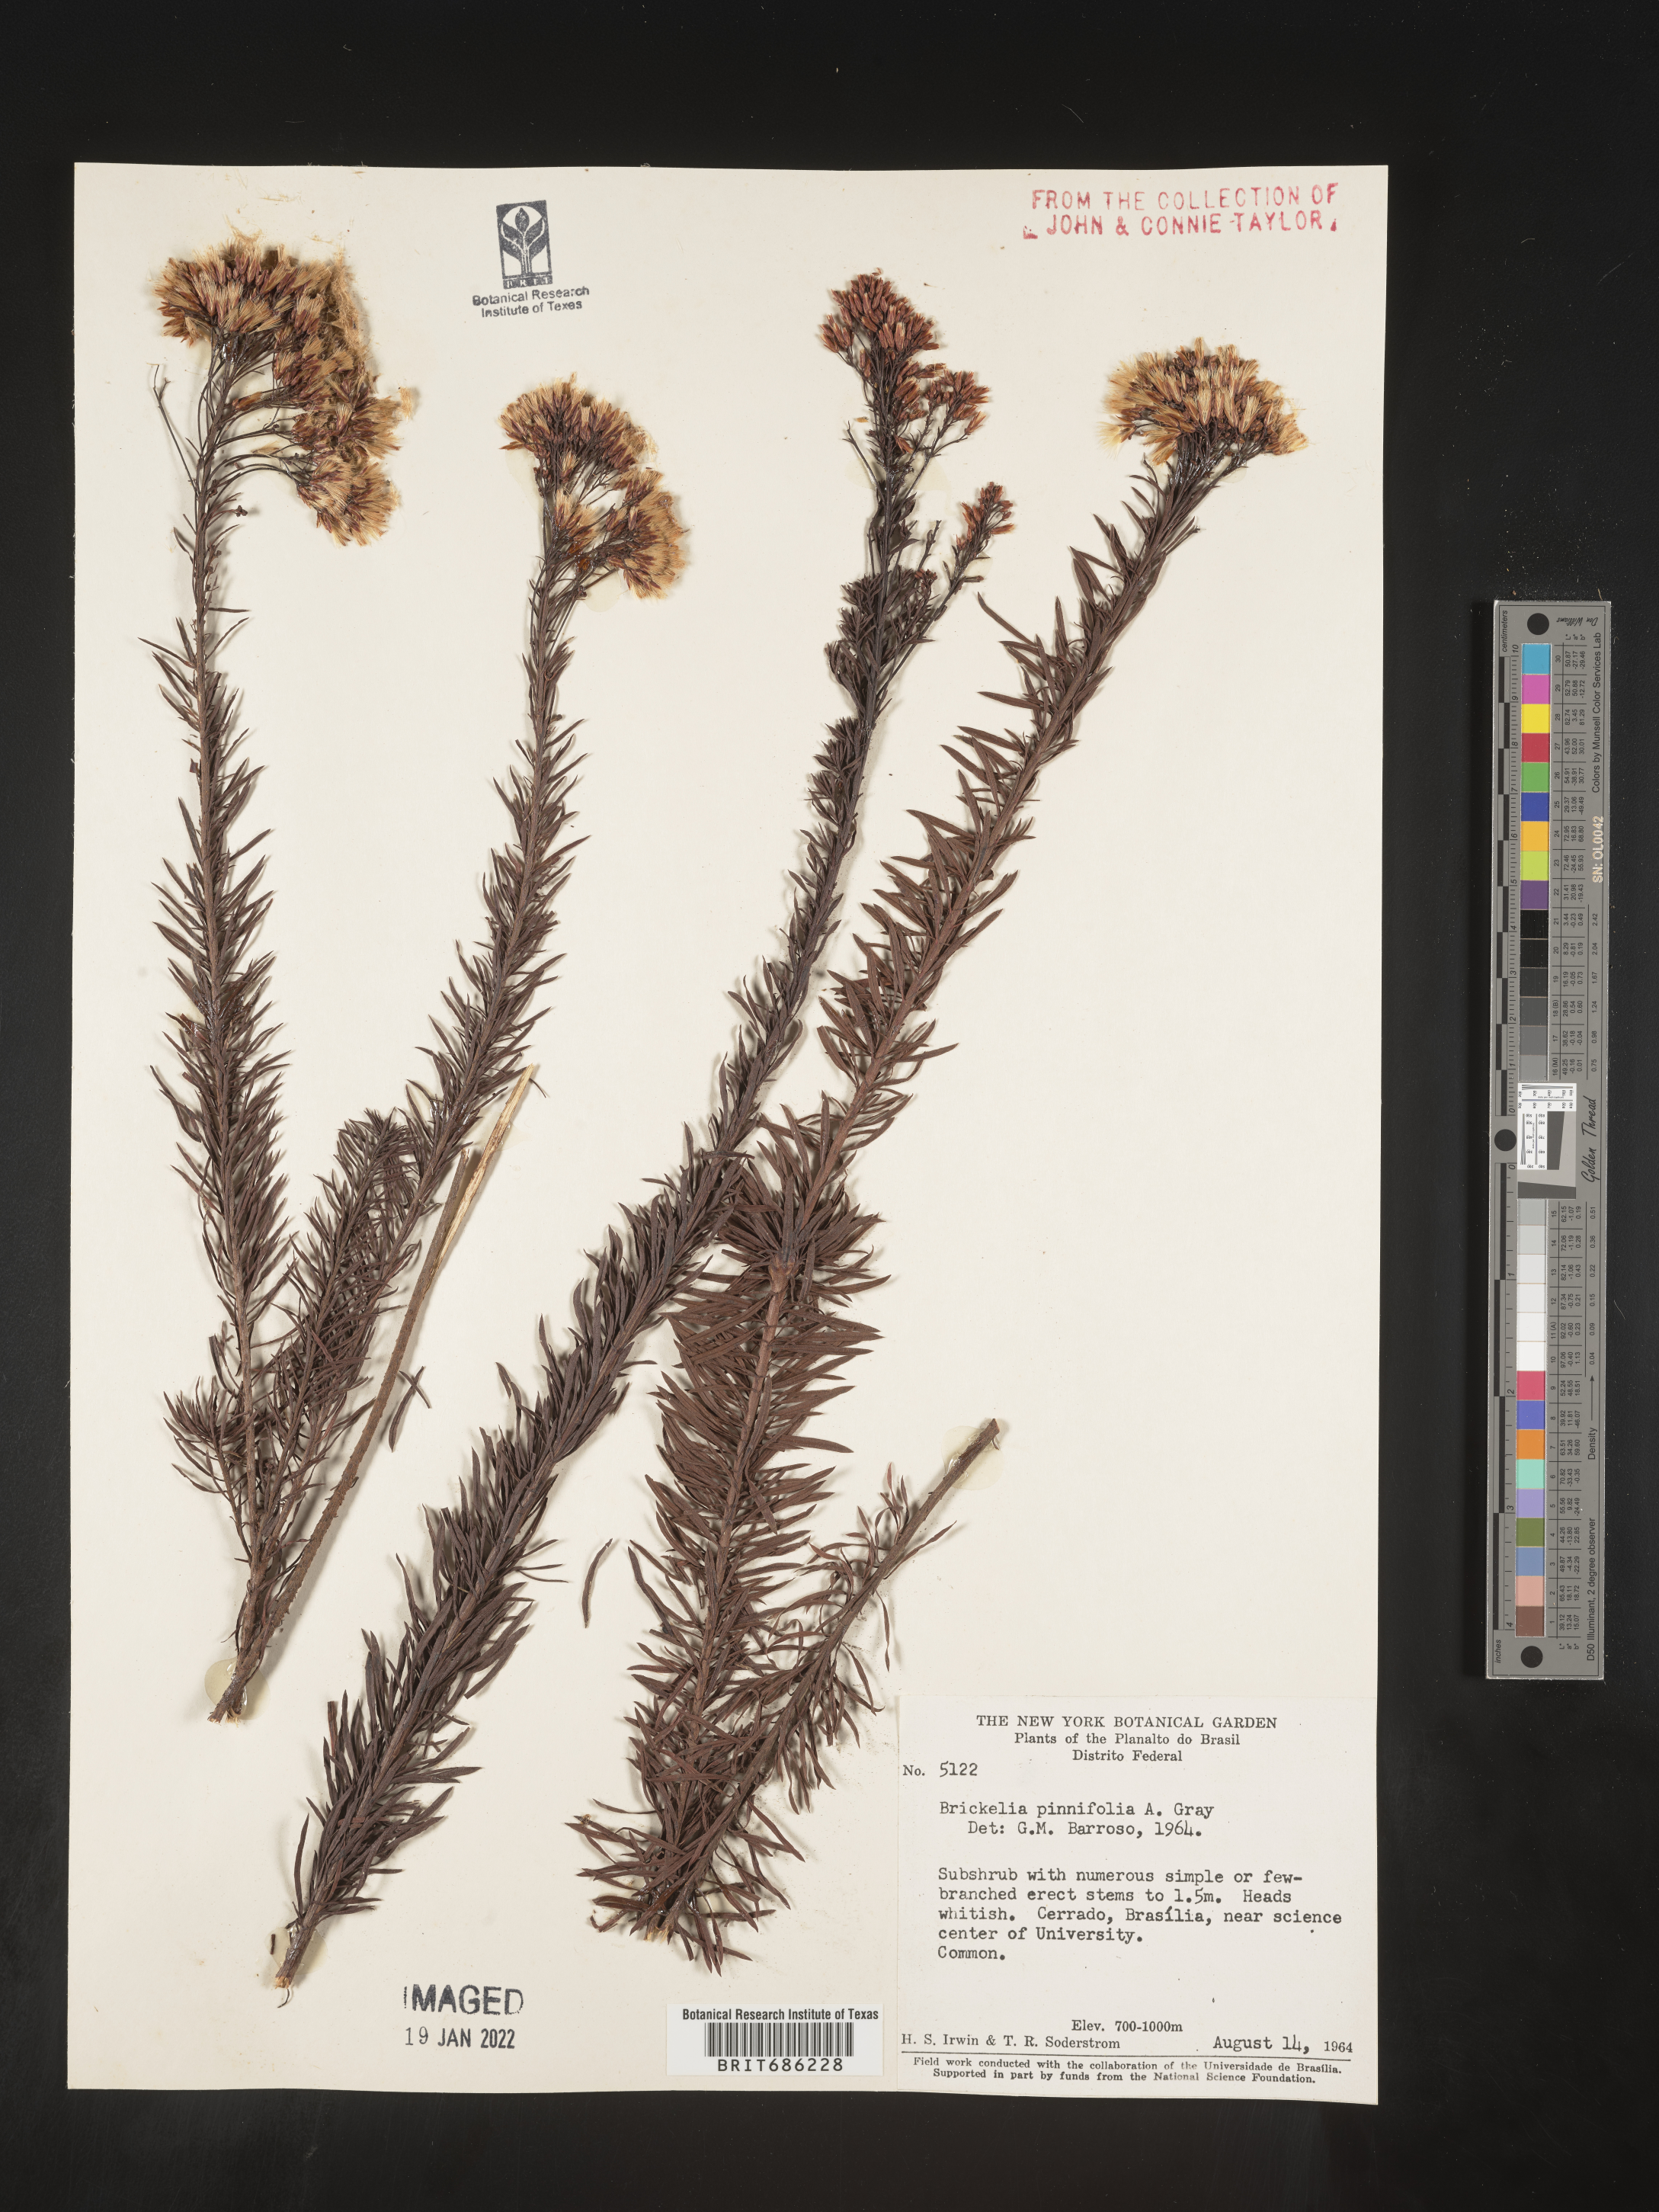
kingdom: Plantae
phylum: Tracheophyta
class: Magnoliopsida
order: Asterales
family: Asteraceae
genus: Brickellia
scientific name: Brickellia
